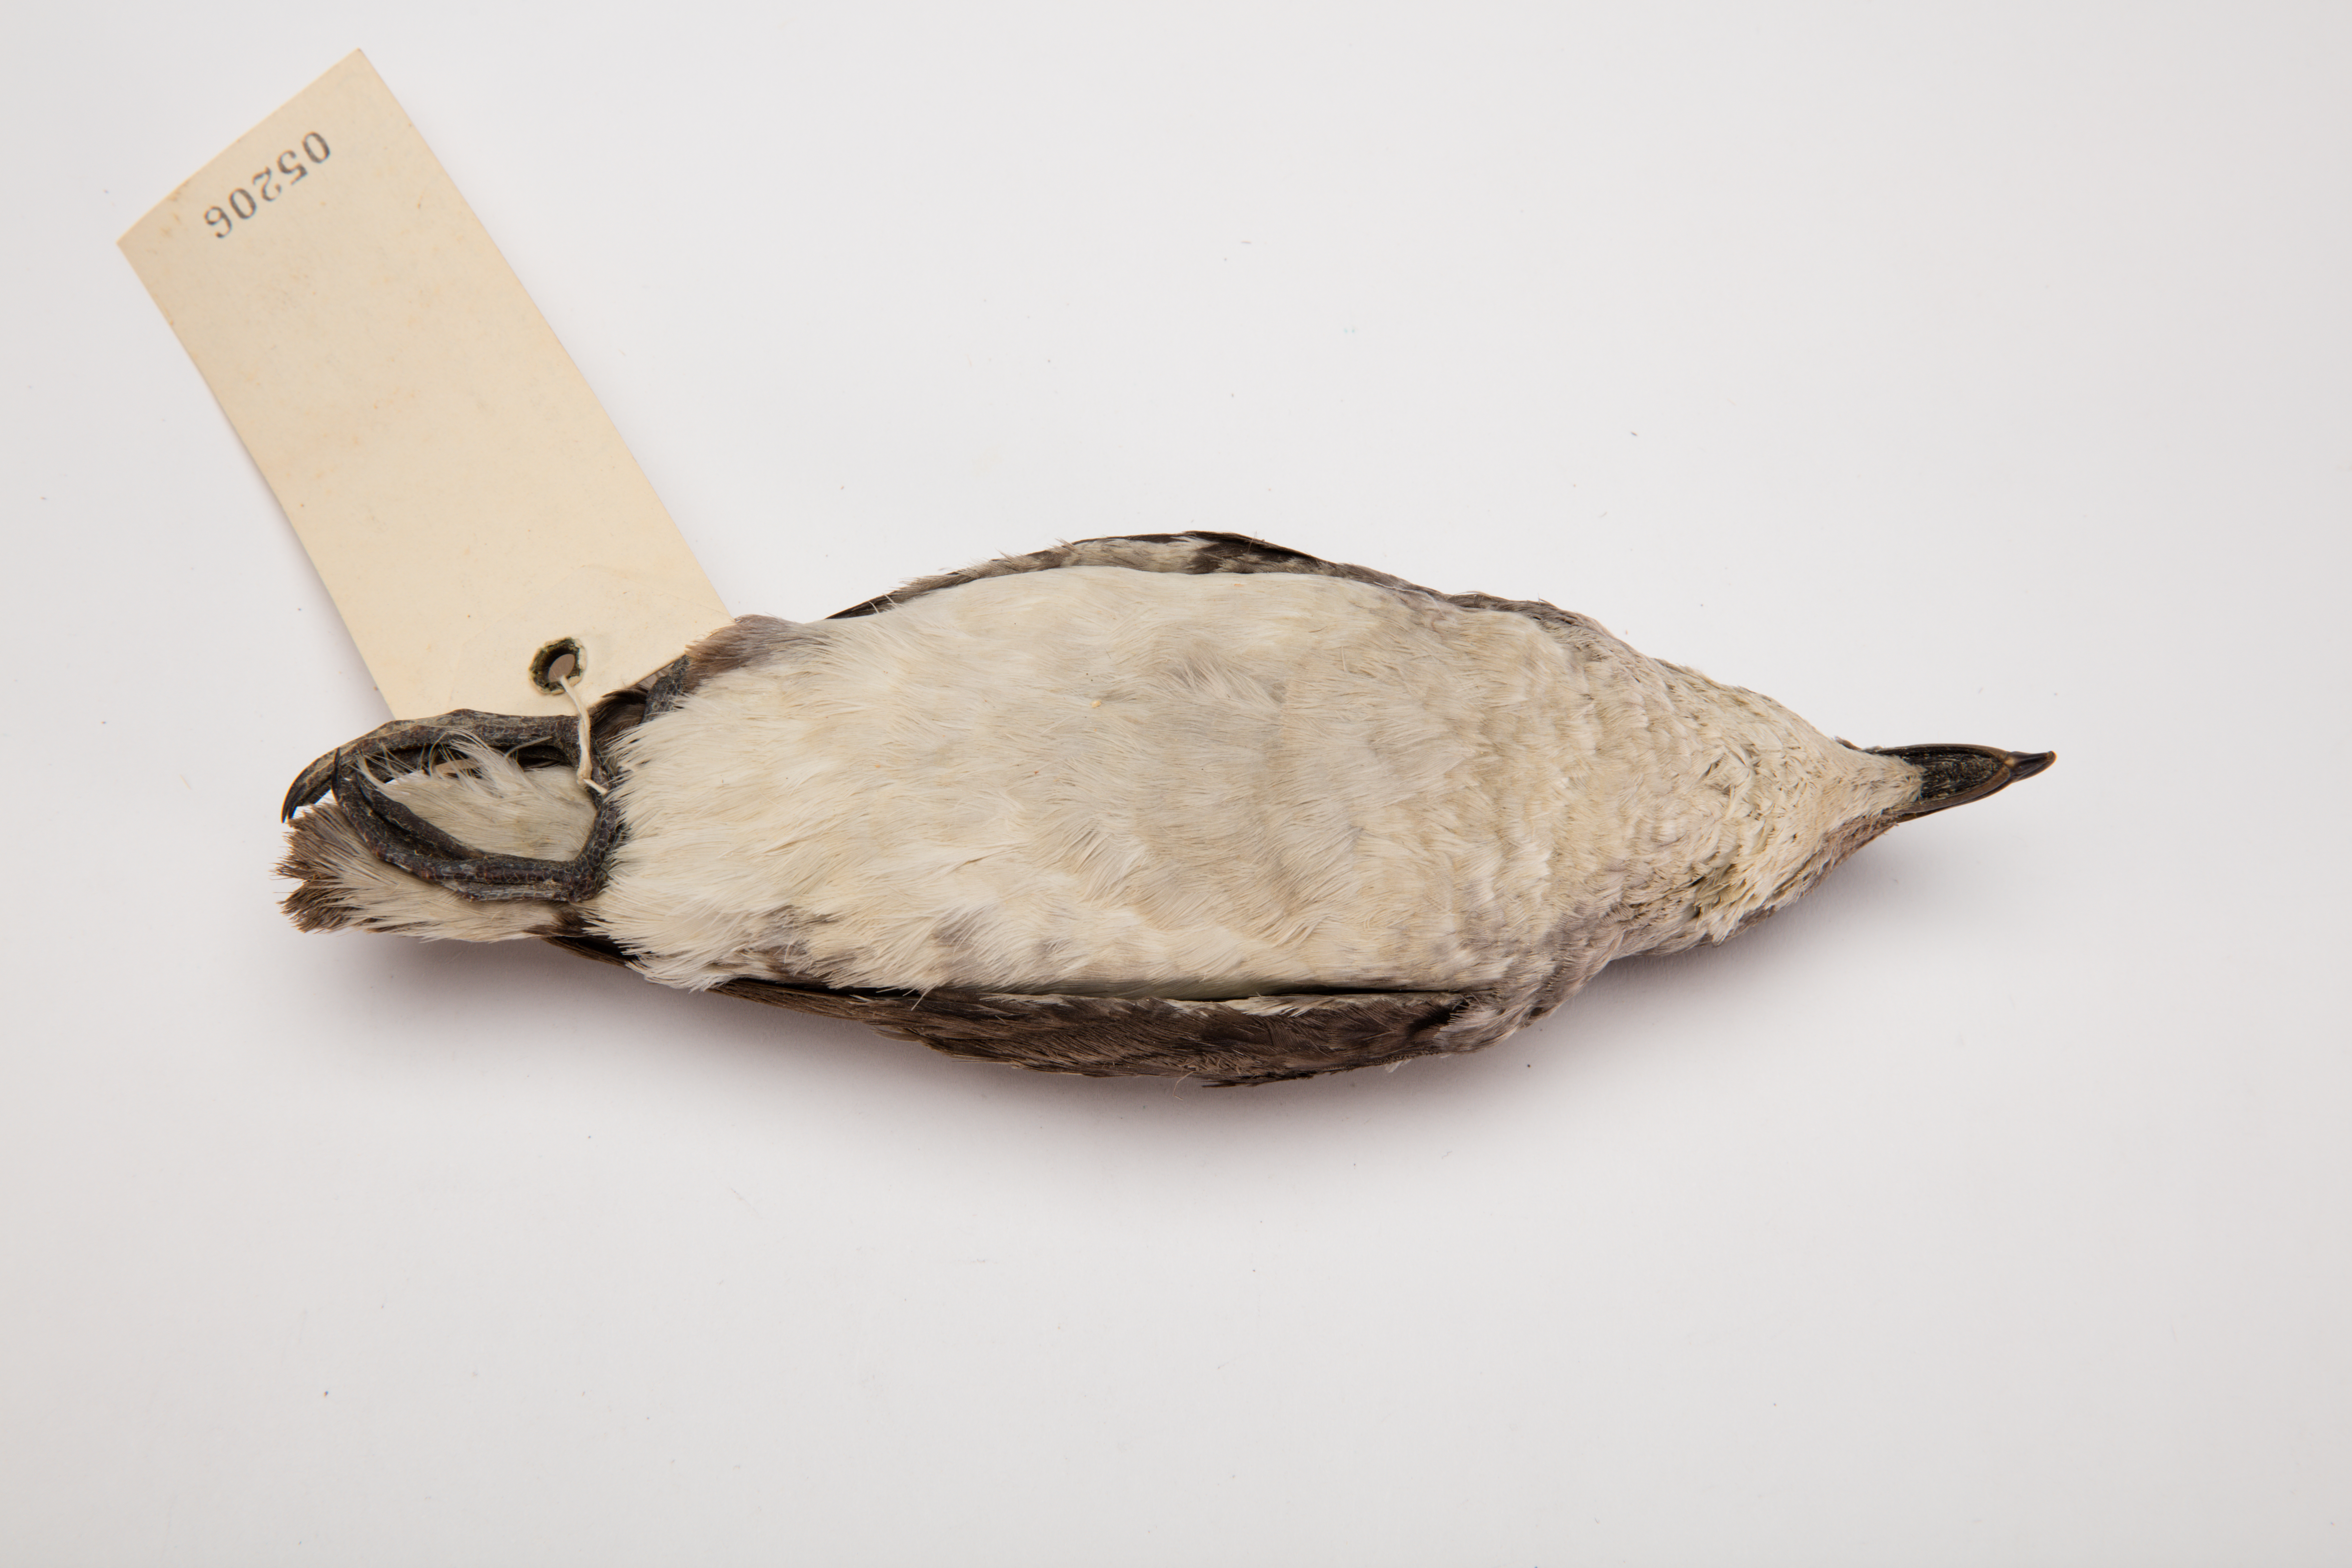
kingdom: Animalia
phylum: Chordata
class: Aves
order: Procellariiformes
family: Pelecanoididae
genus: Pelecanoides
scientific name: Pelecanoides urinatrix
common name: Common diving-petrel
